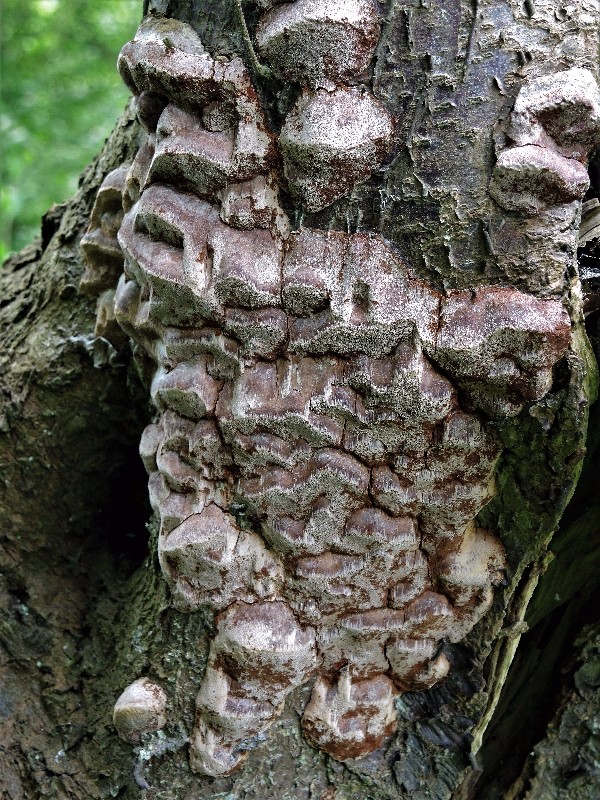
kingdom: Fungi
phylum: Basidiomycota
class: Agaricomycetes
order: Hymenochaetales
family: Hymenochaetaceae
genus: Phellinus
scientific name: Phellinus pomaceus
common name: blomme-ildporesvamp
